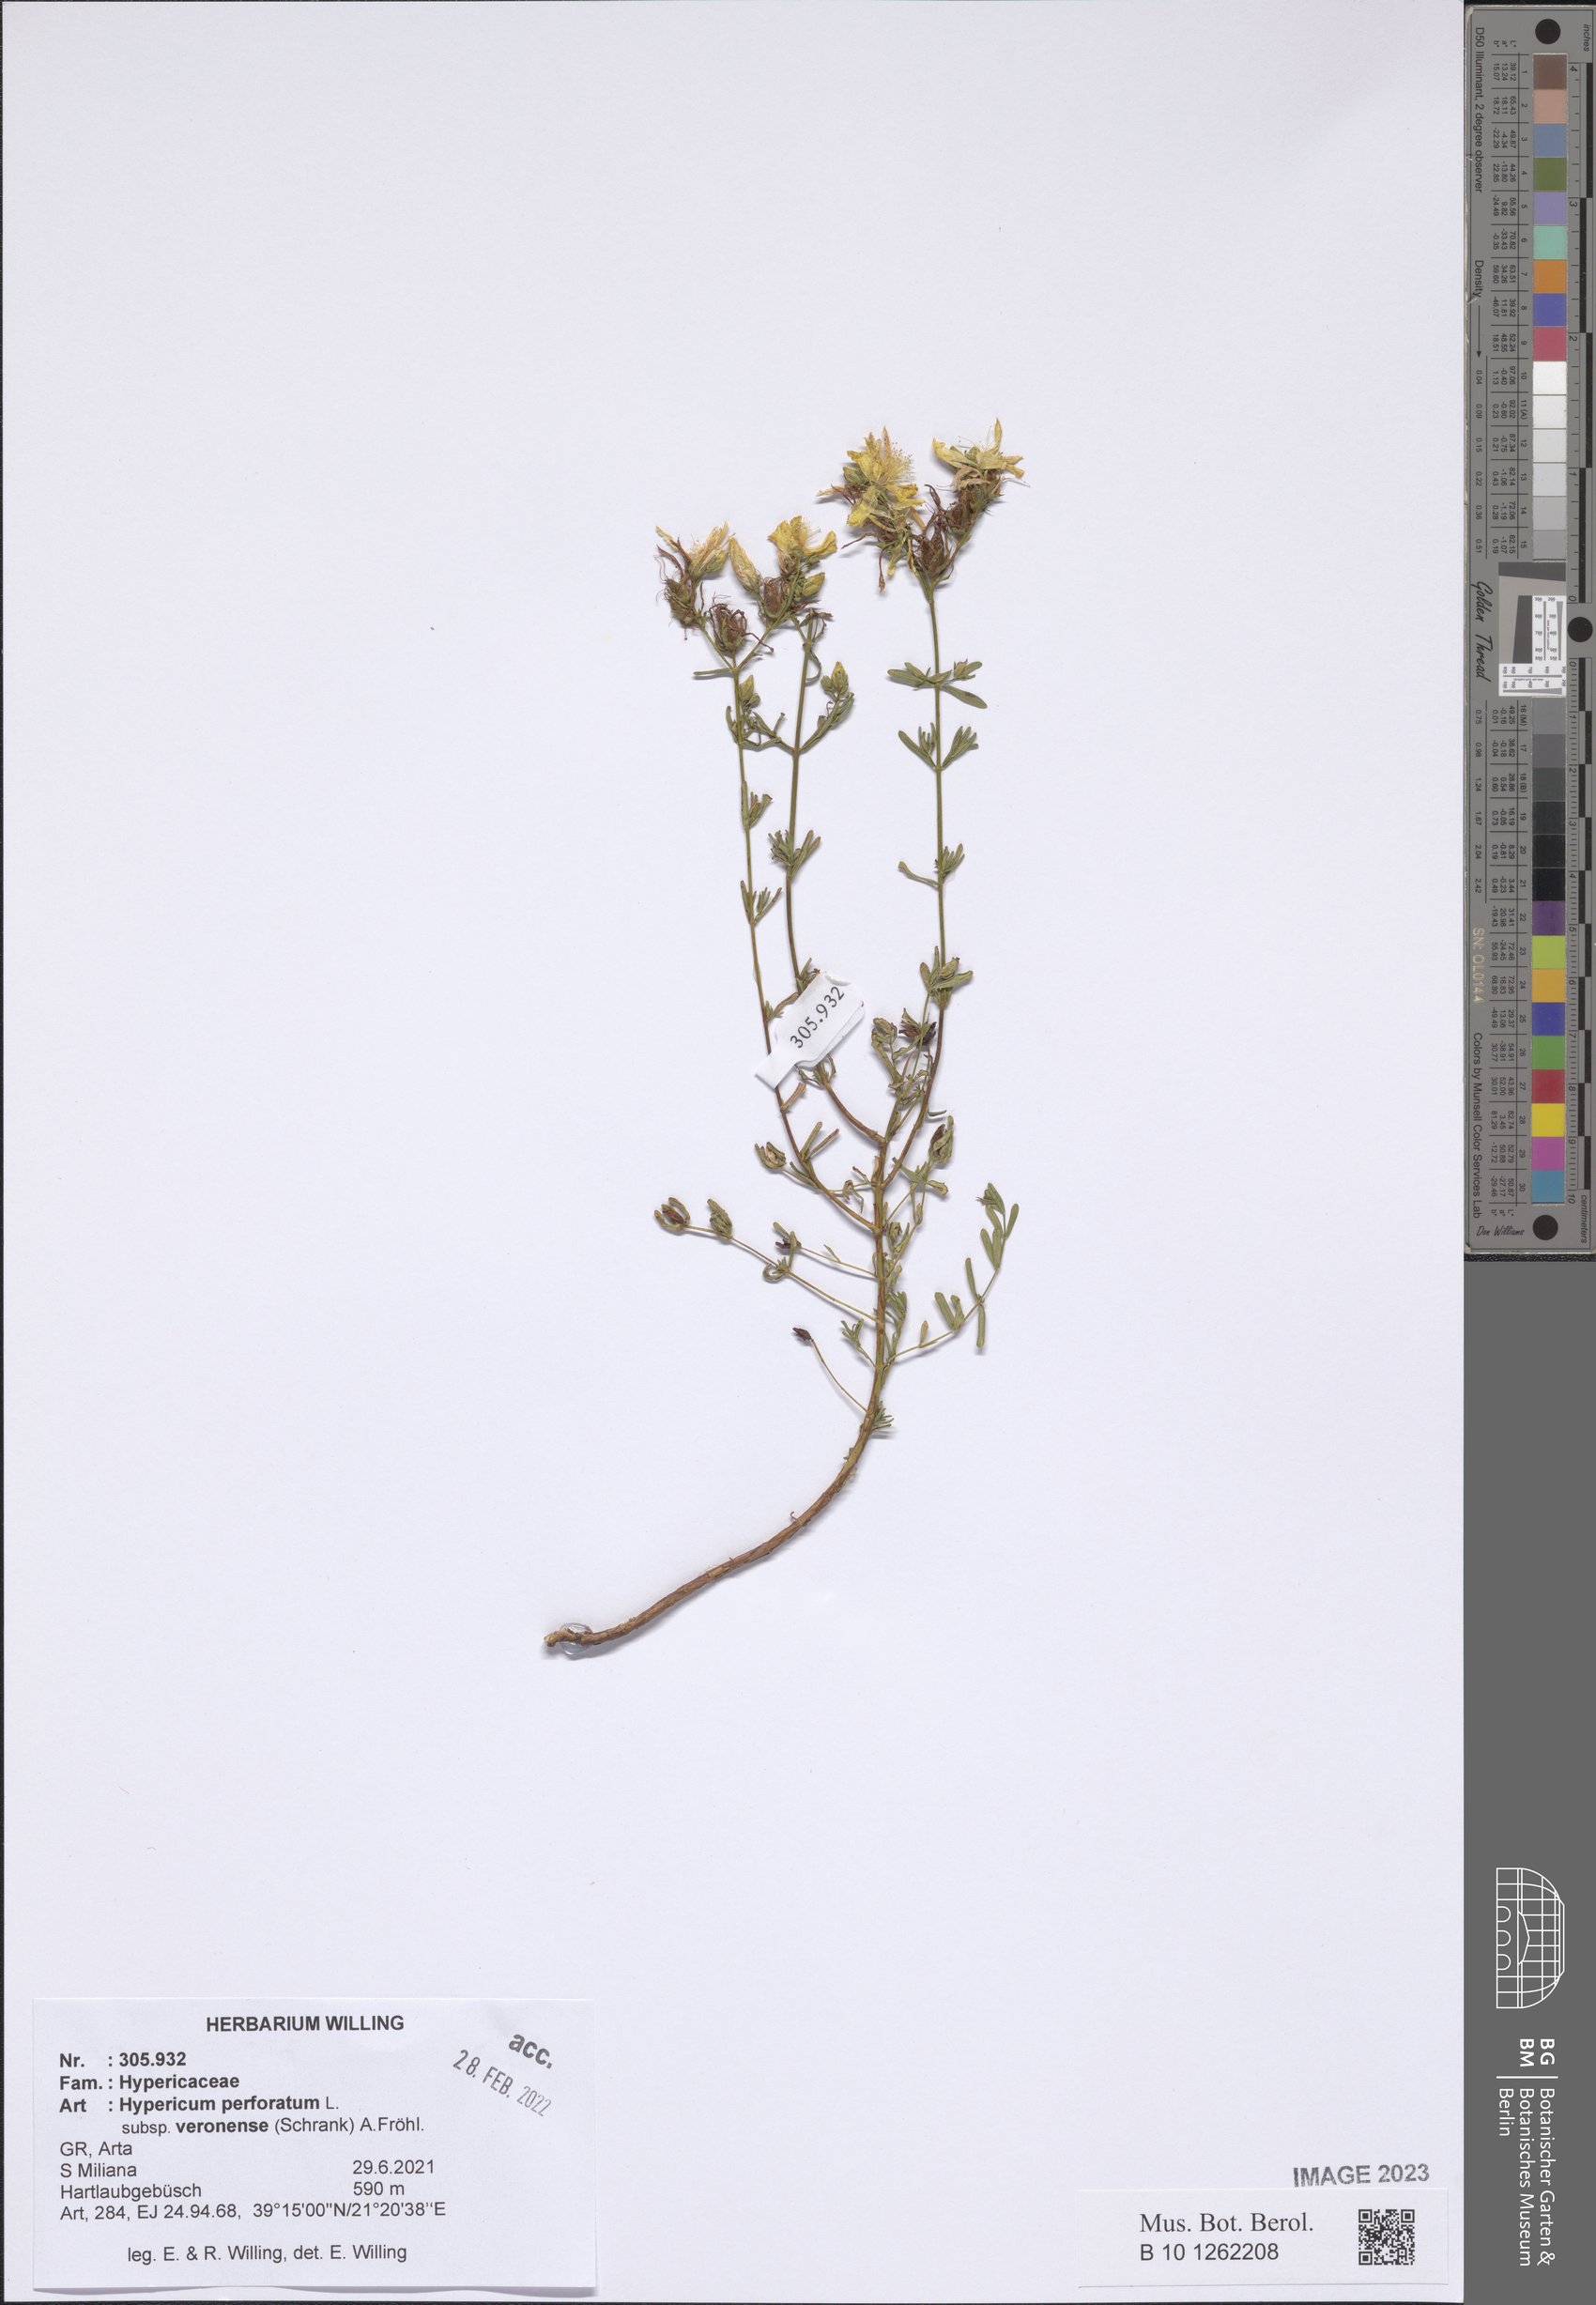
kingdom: Plantae
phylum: Tracheophyta
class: Magnoliopsida
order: Malpighiales
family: Hypericaceae
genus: Hypericum
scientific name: Hypericum veronense
